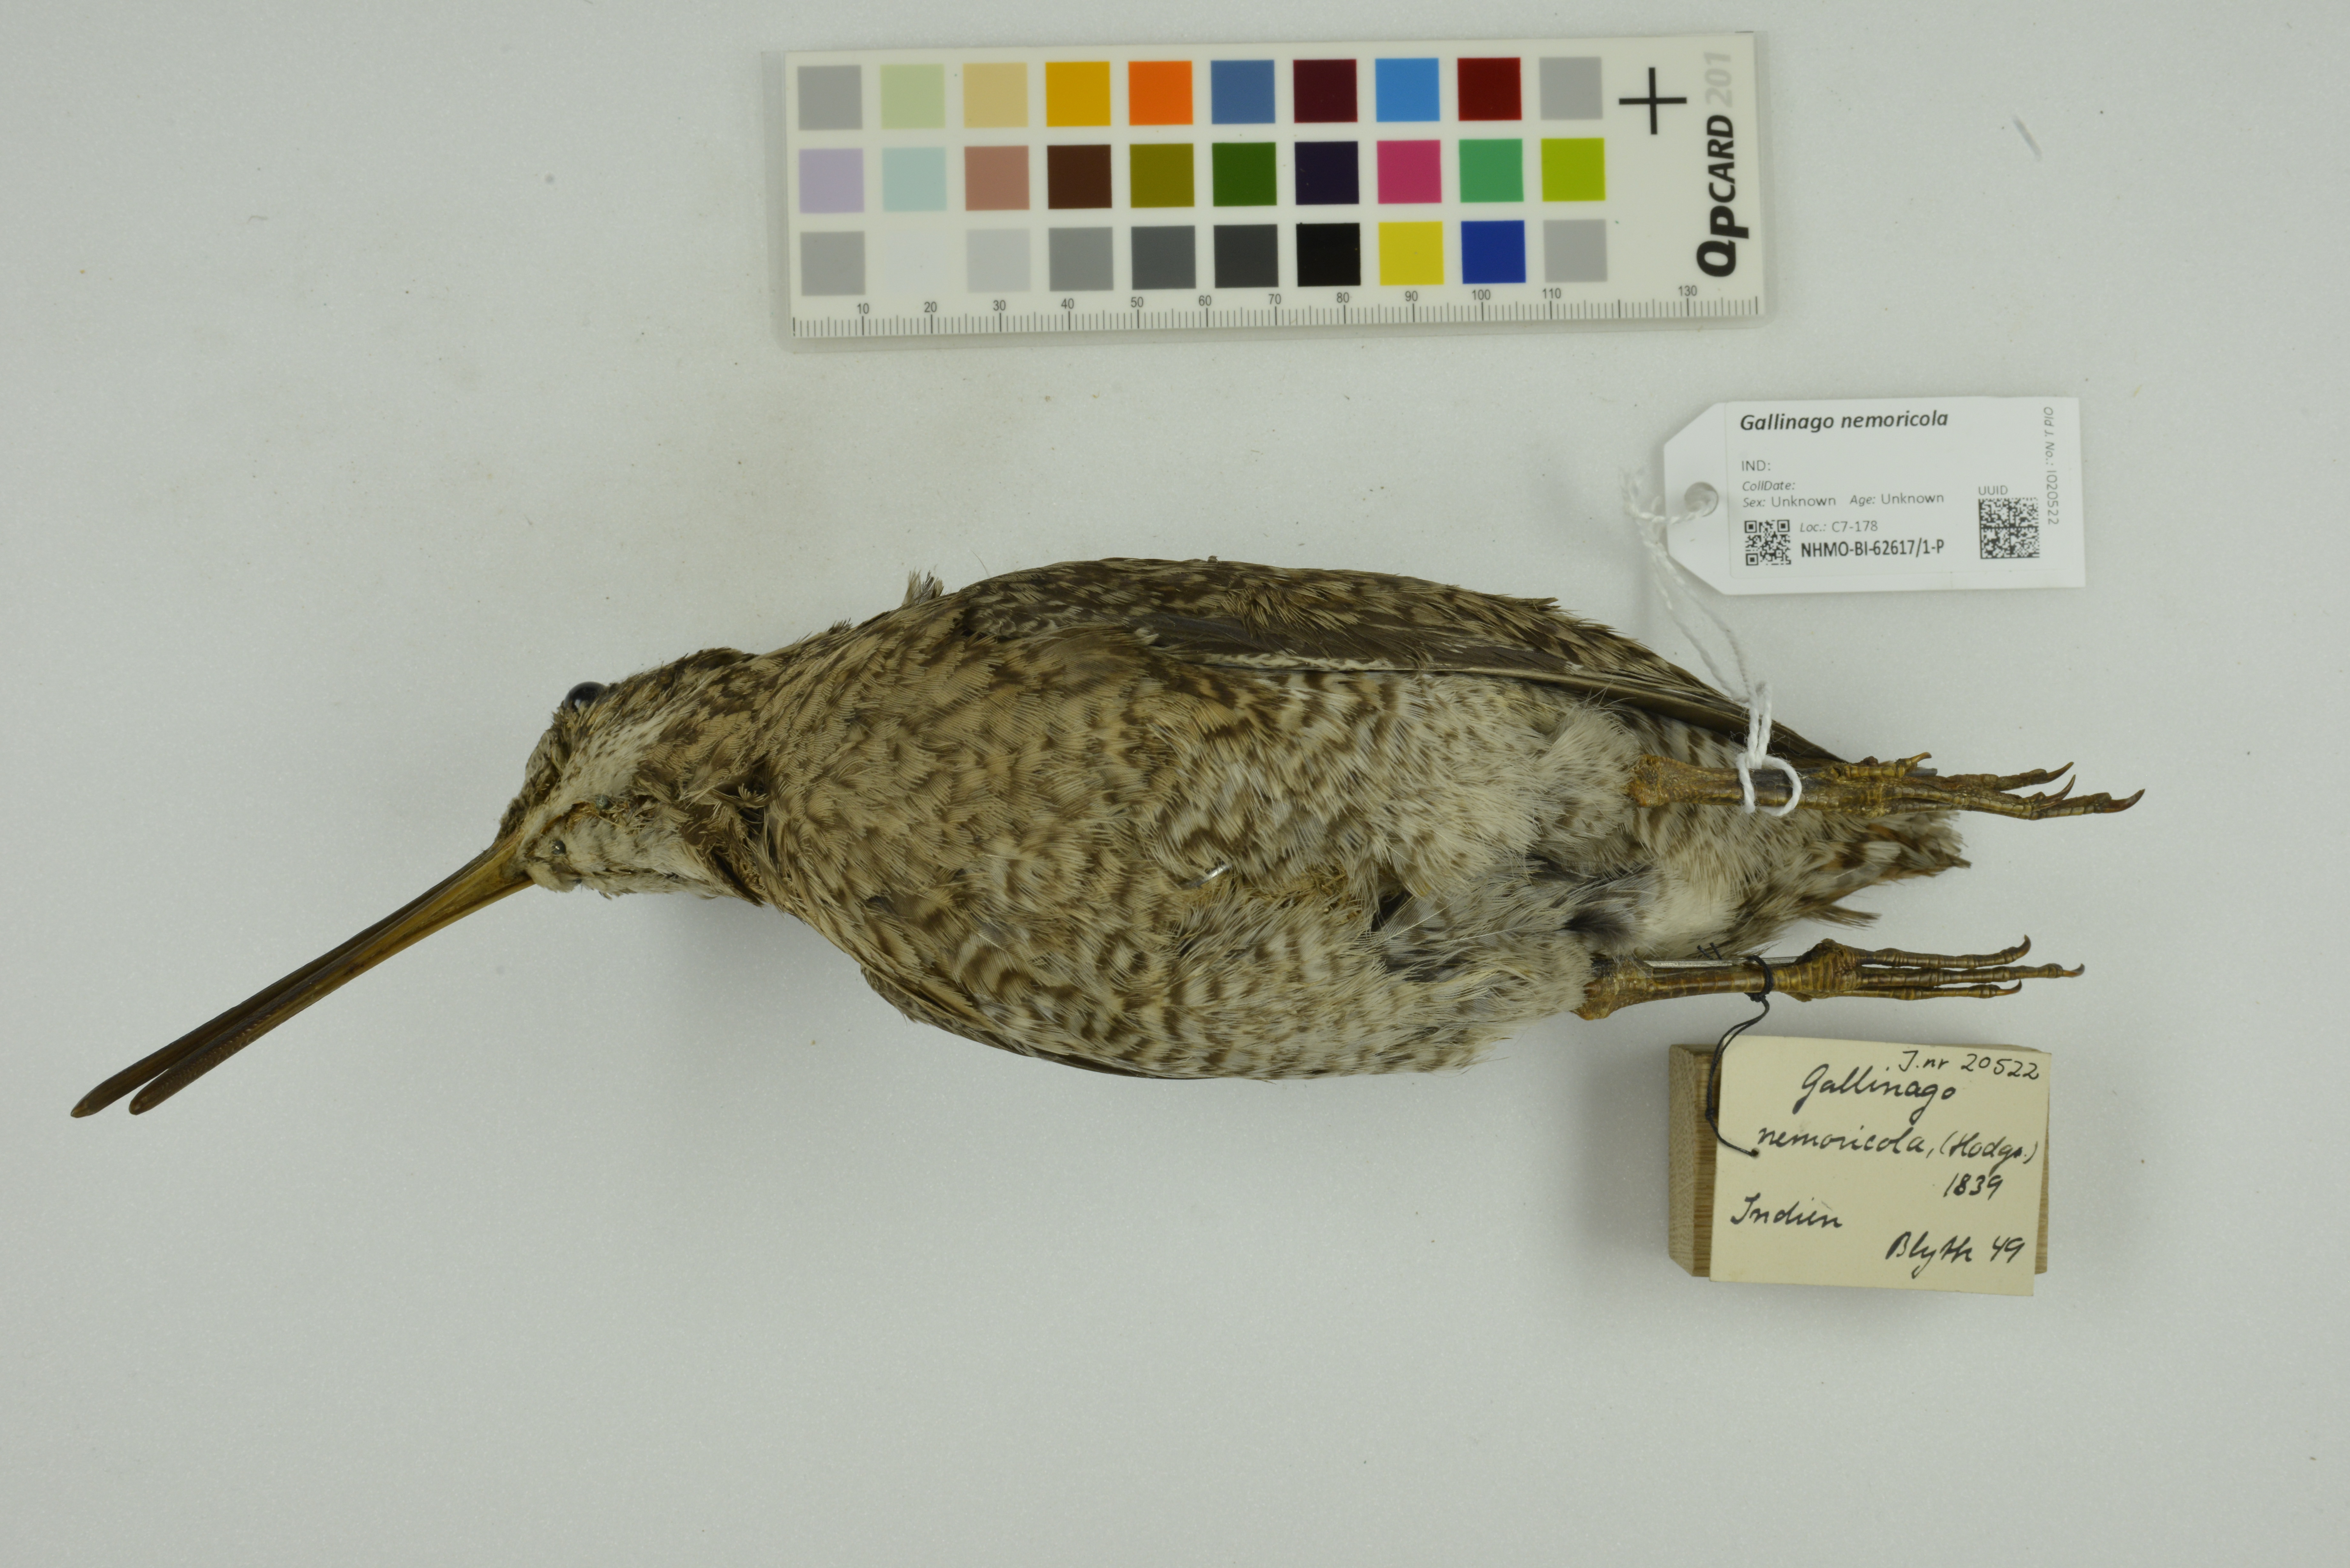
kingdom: Animalia
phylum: Chordata
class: Aves
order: Charadriiformes
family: Scolopacidae
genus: Gallinago
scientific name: Gallinago nemoricola
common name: Wood snipe
